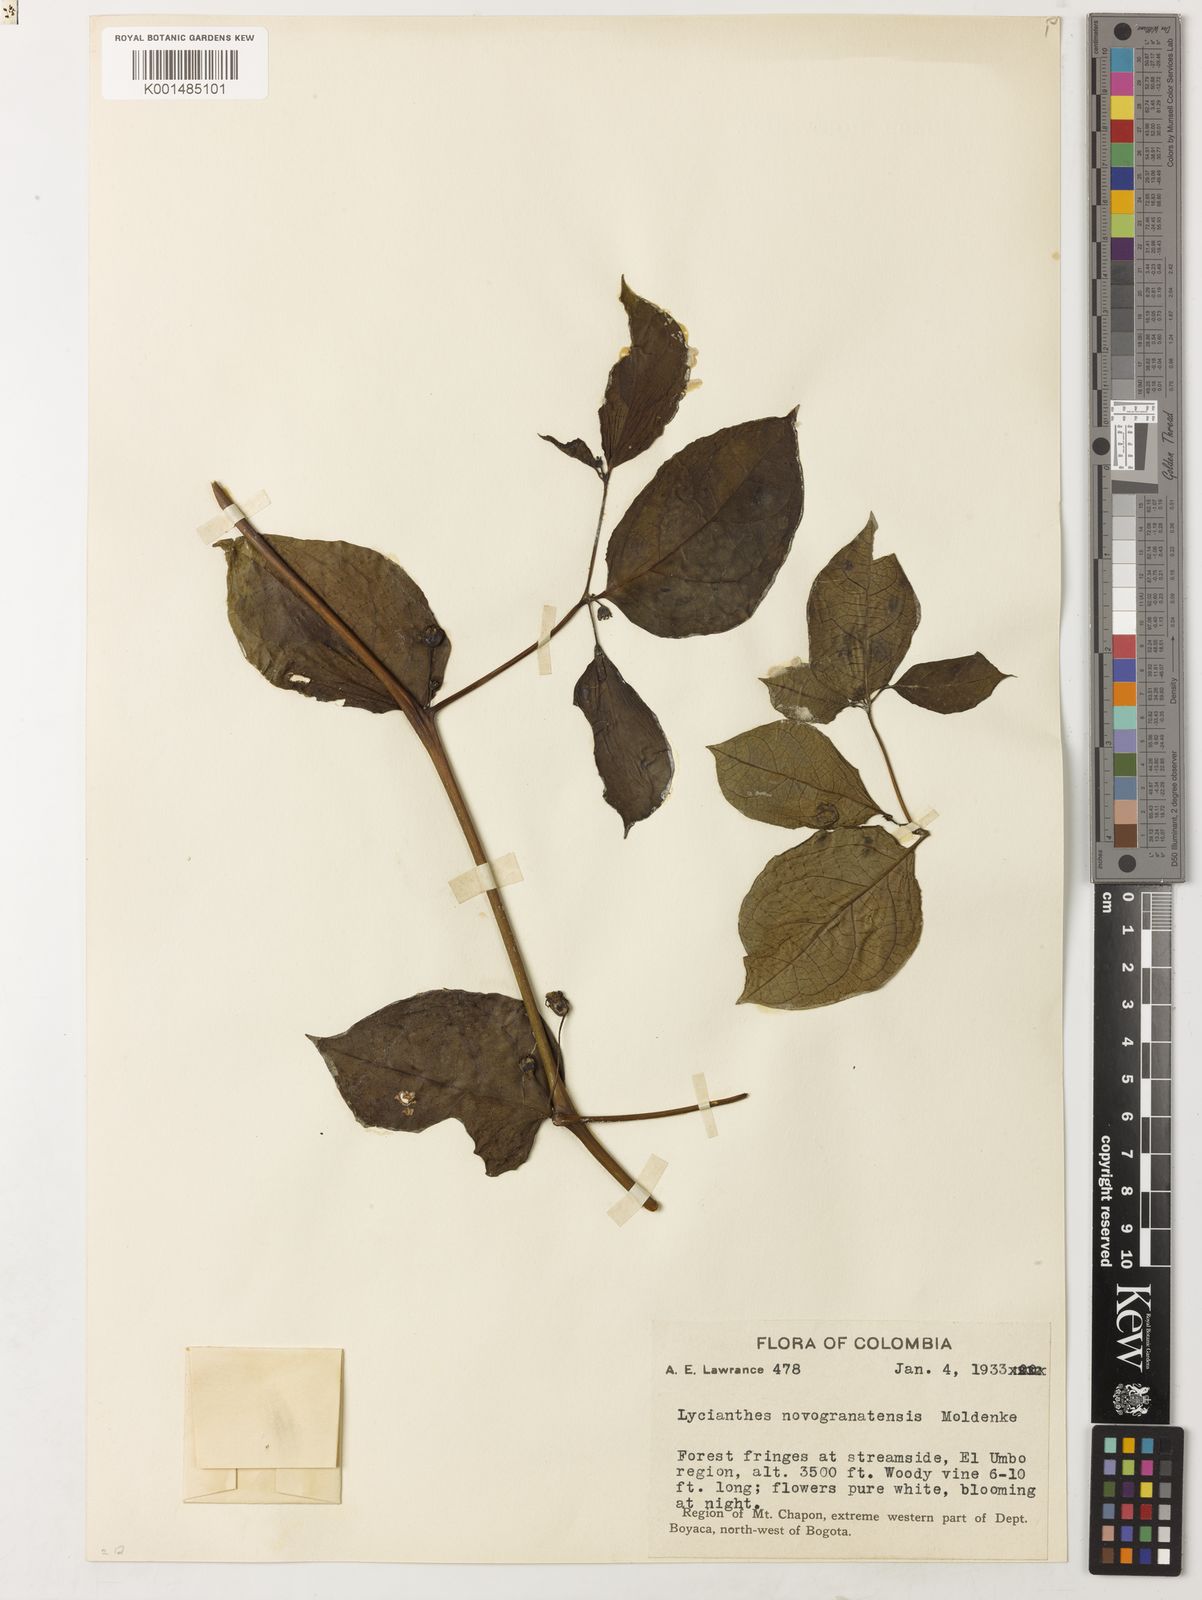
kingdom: Plantae
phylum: Tracheophyta
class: Magnoliopsida
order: Solanales
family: Solanaceae
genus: Lycianthes
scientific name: Lycianthes novogranatensis
